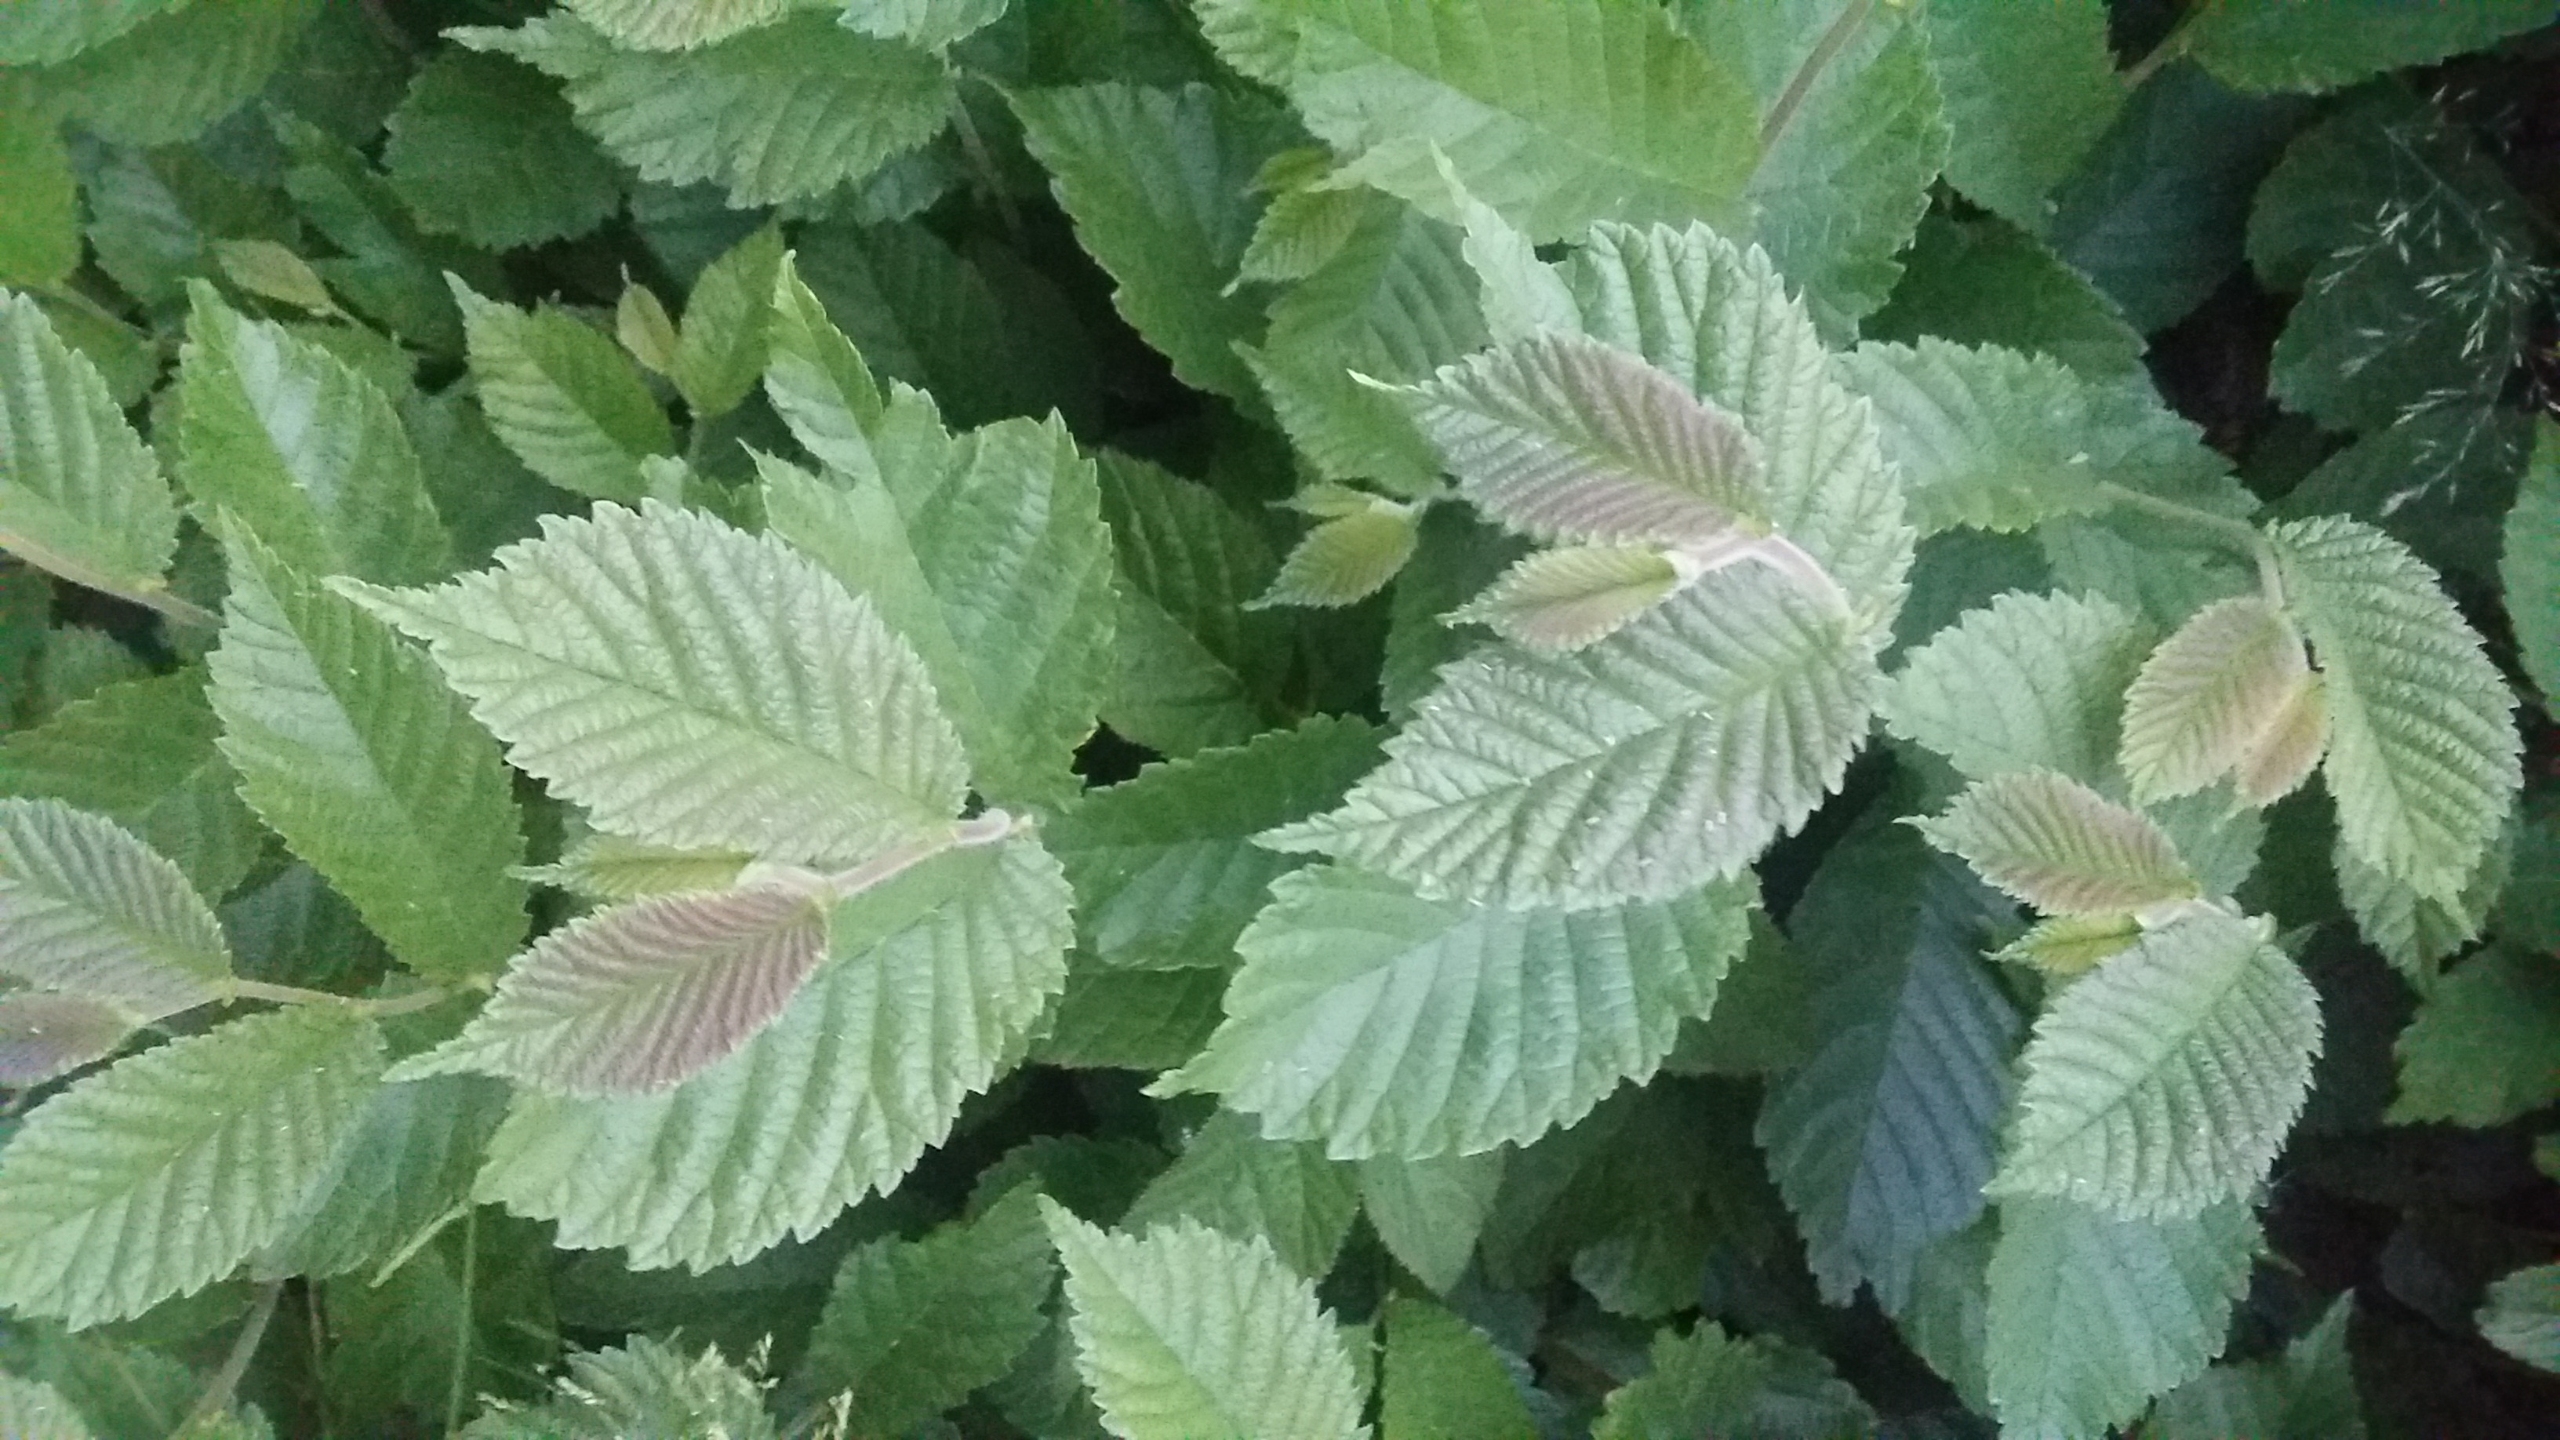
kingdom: Plantae
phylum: Tracheophyta
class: Magnoliopsida
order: Rosales
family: Ulmaceae
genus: Ulmus
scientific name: Ulmus glabra
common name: Skov-elm/storbladet elm
